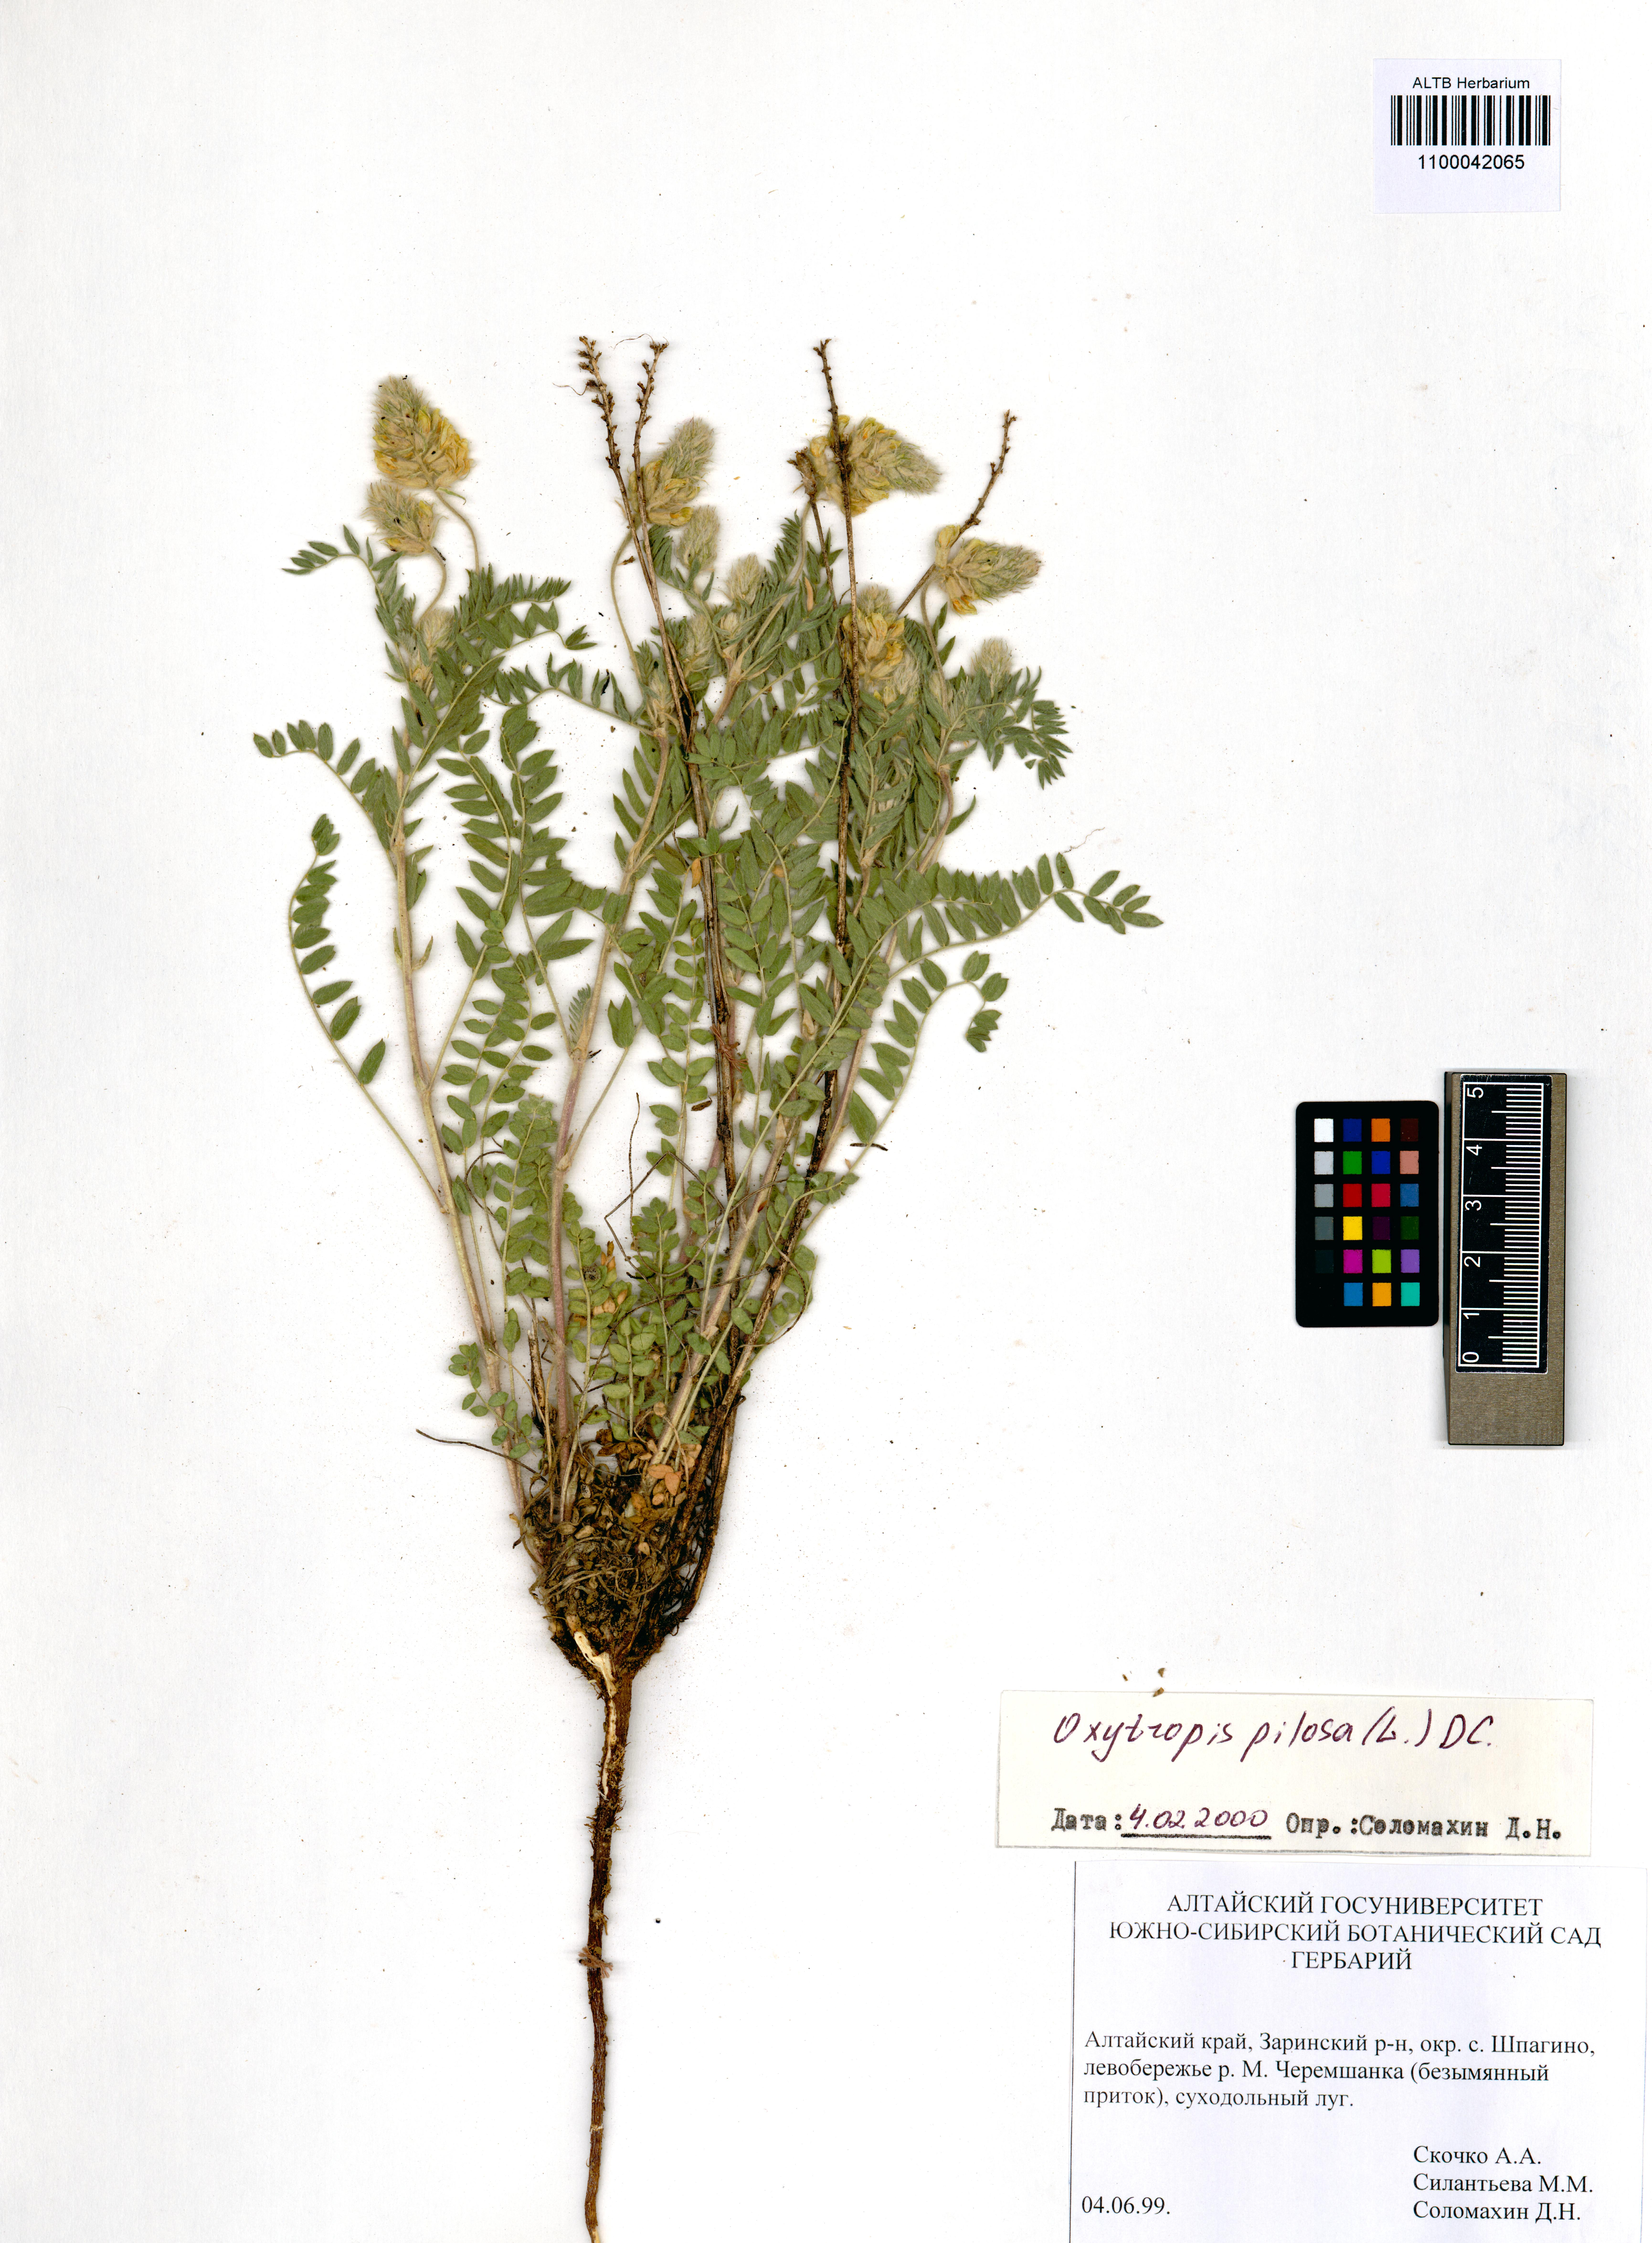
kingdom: Plantae
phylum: Tracheophyta
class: Magnoliopsida
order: Fabales
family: Fabaceae
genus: Oxytropis
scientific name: Oxytropis pilosa
